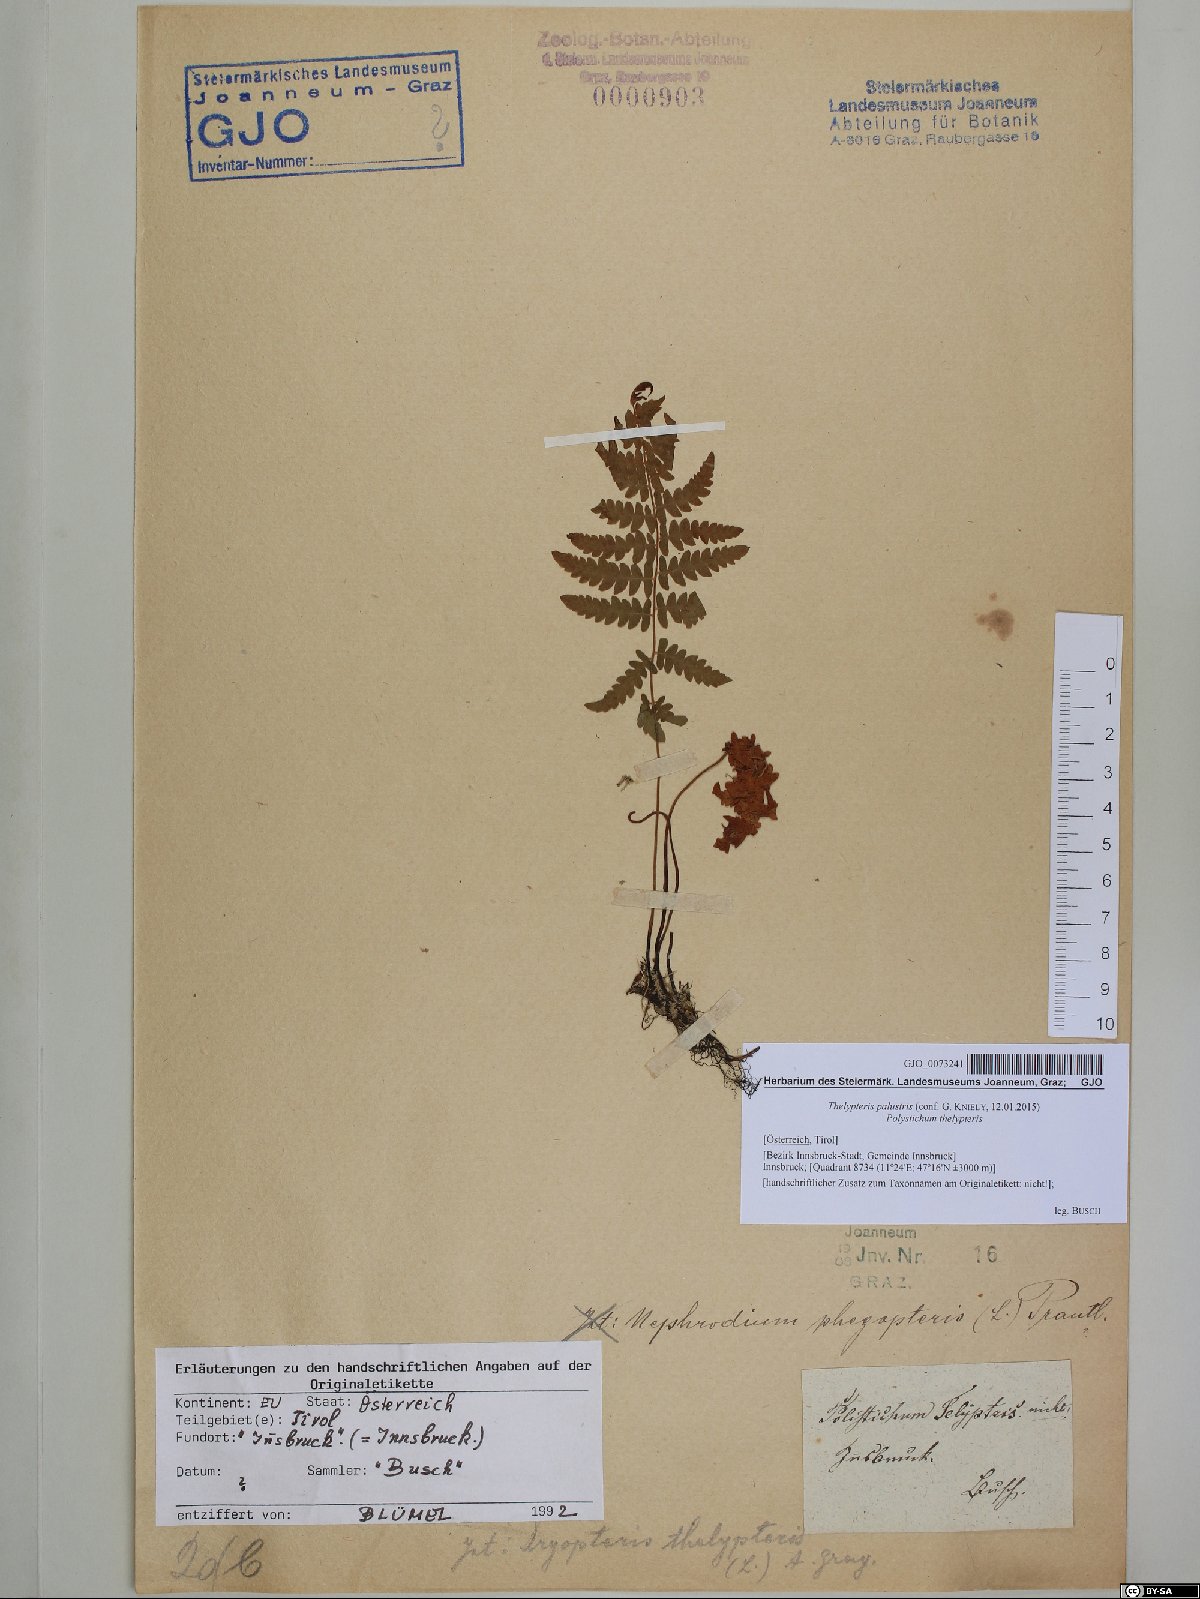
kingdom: Plantae
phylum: Tracheophyta
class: Polypodiopsida
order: Polypodiales
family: Thelypteridaceae
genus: Thelypteris
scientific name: Thelypteris palustris
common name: Marsh fern
